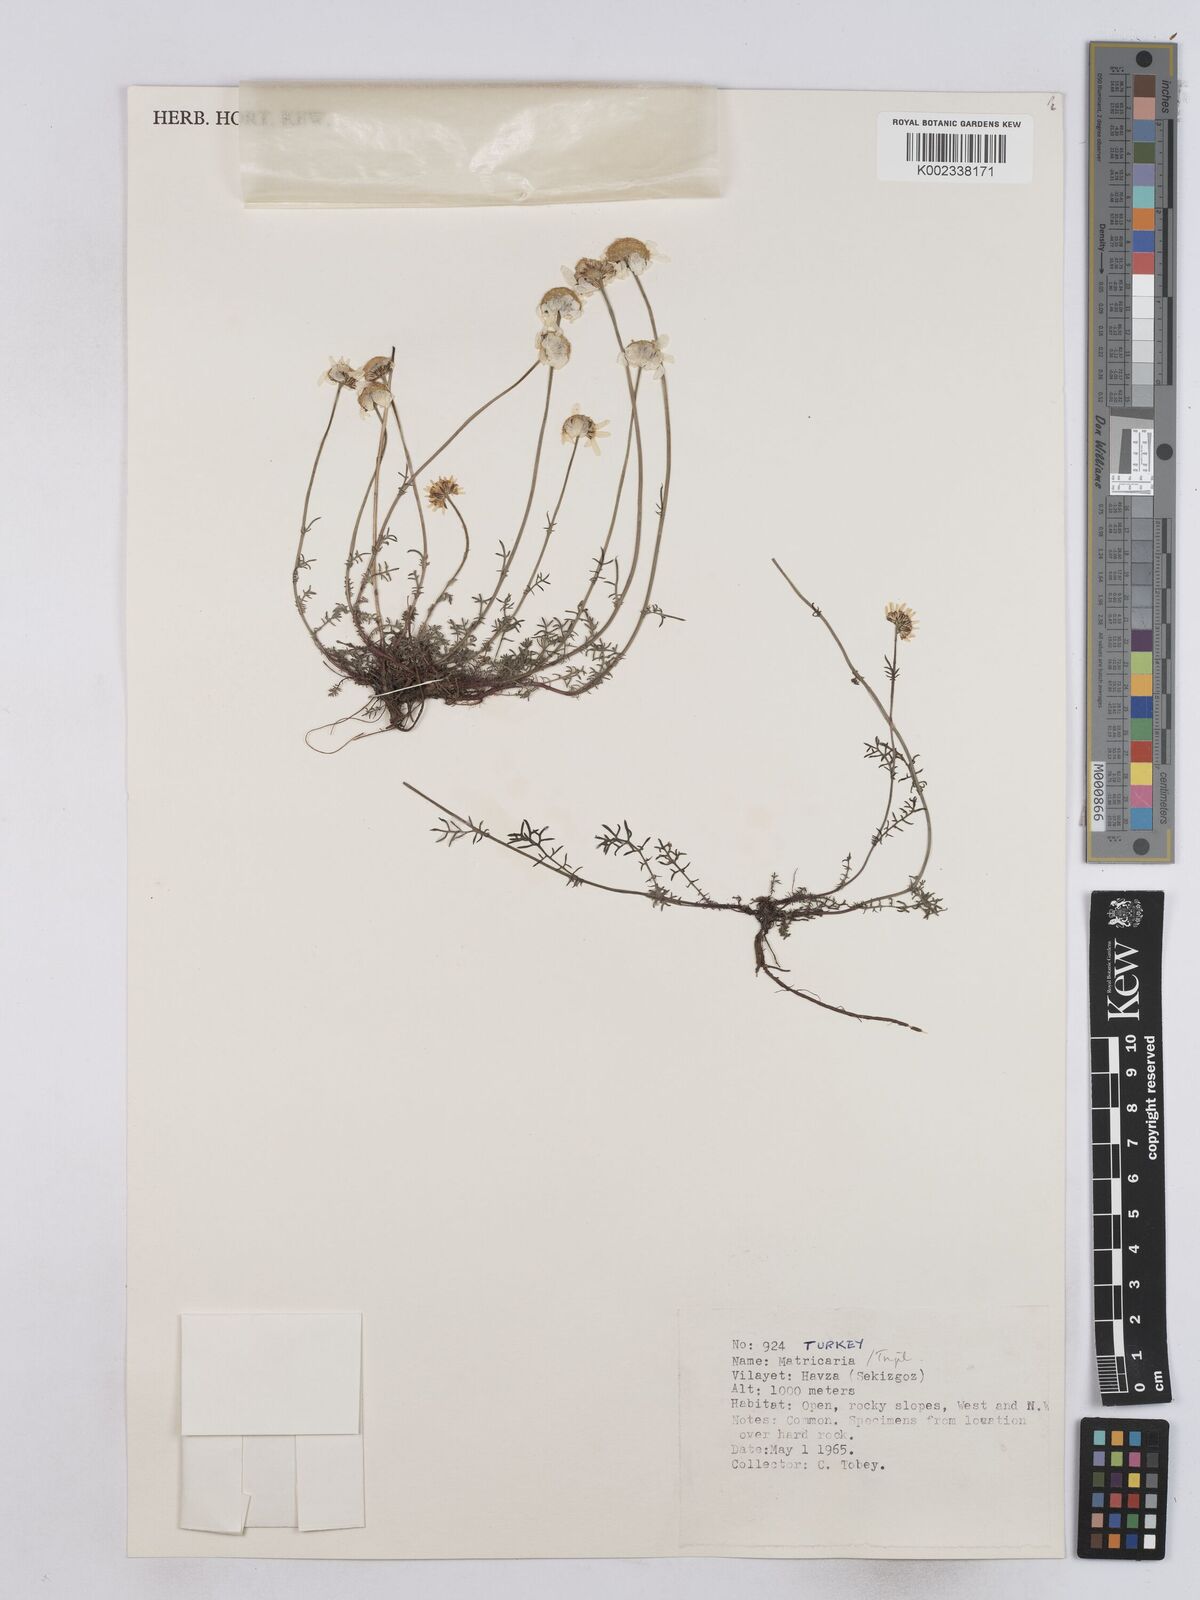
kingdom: Plantae
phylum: Tracheophyta
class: Magnoliopsida
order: Asterales
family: Asteraceae
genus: Matricaria
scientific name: Matricaria
